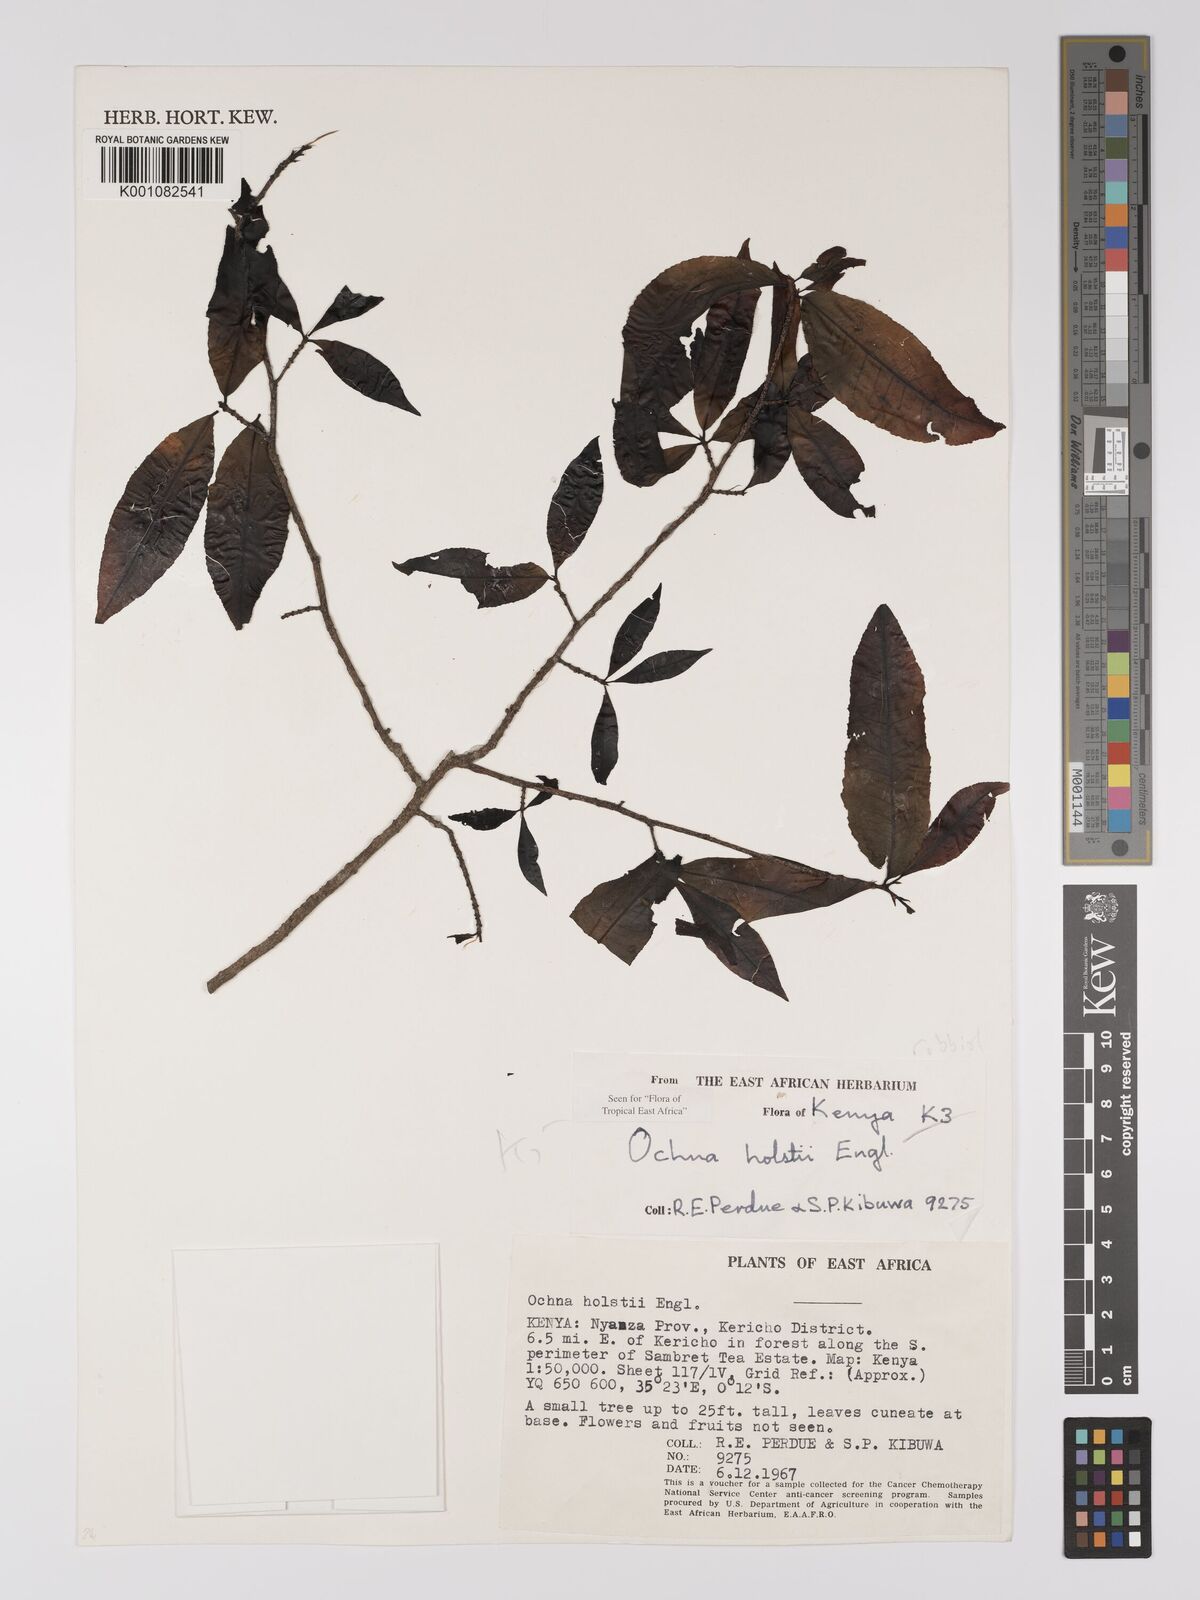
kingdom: Plantae
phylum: Tracheophyta
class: Magnoliopsida
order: Malpighiales
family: Ochnaceae
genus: Ochna
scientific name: Ochna holstii
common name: Red ironwood
